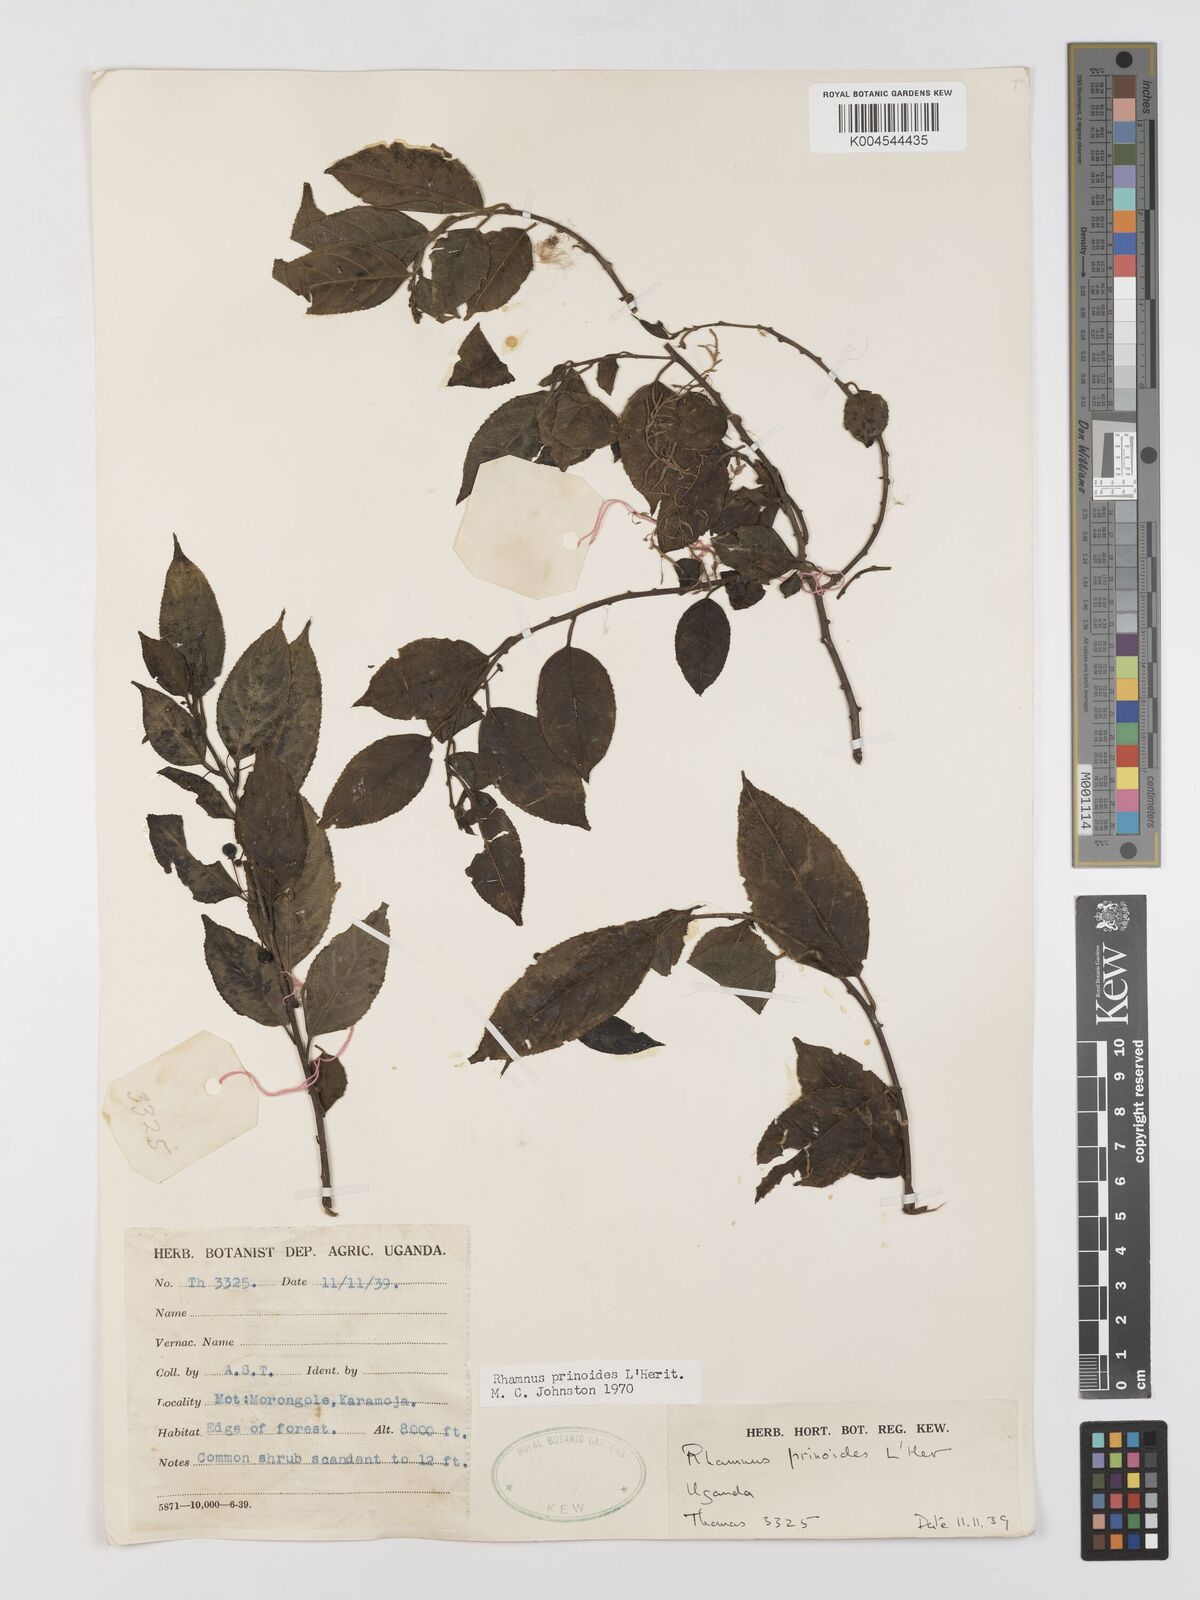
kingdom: Plantae
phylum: Tracheophyta
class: Magnoliopsida
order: Rosales
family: Rhamnaceae
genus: Rhamnus
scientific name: Rhamnus prinoides
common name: Dogwood
